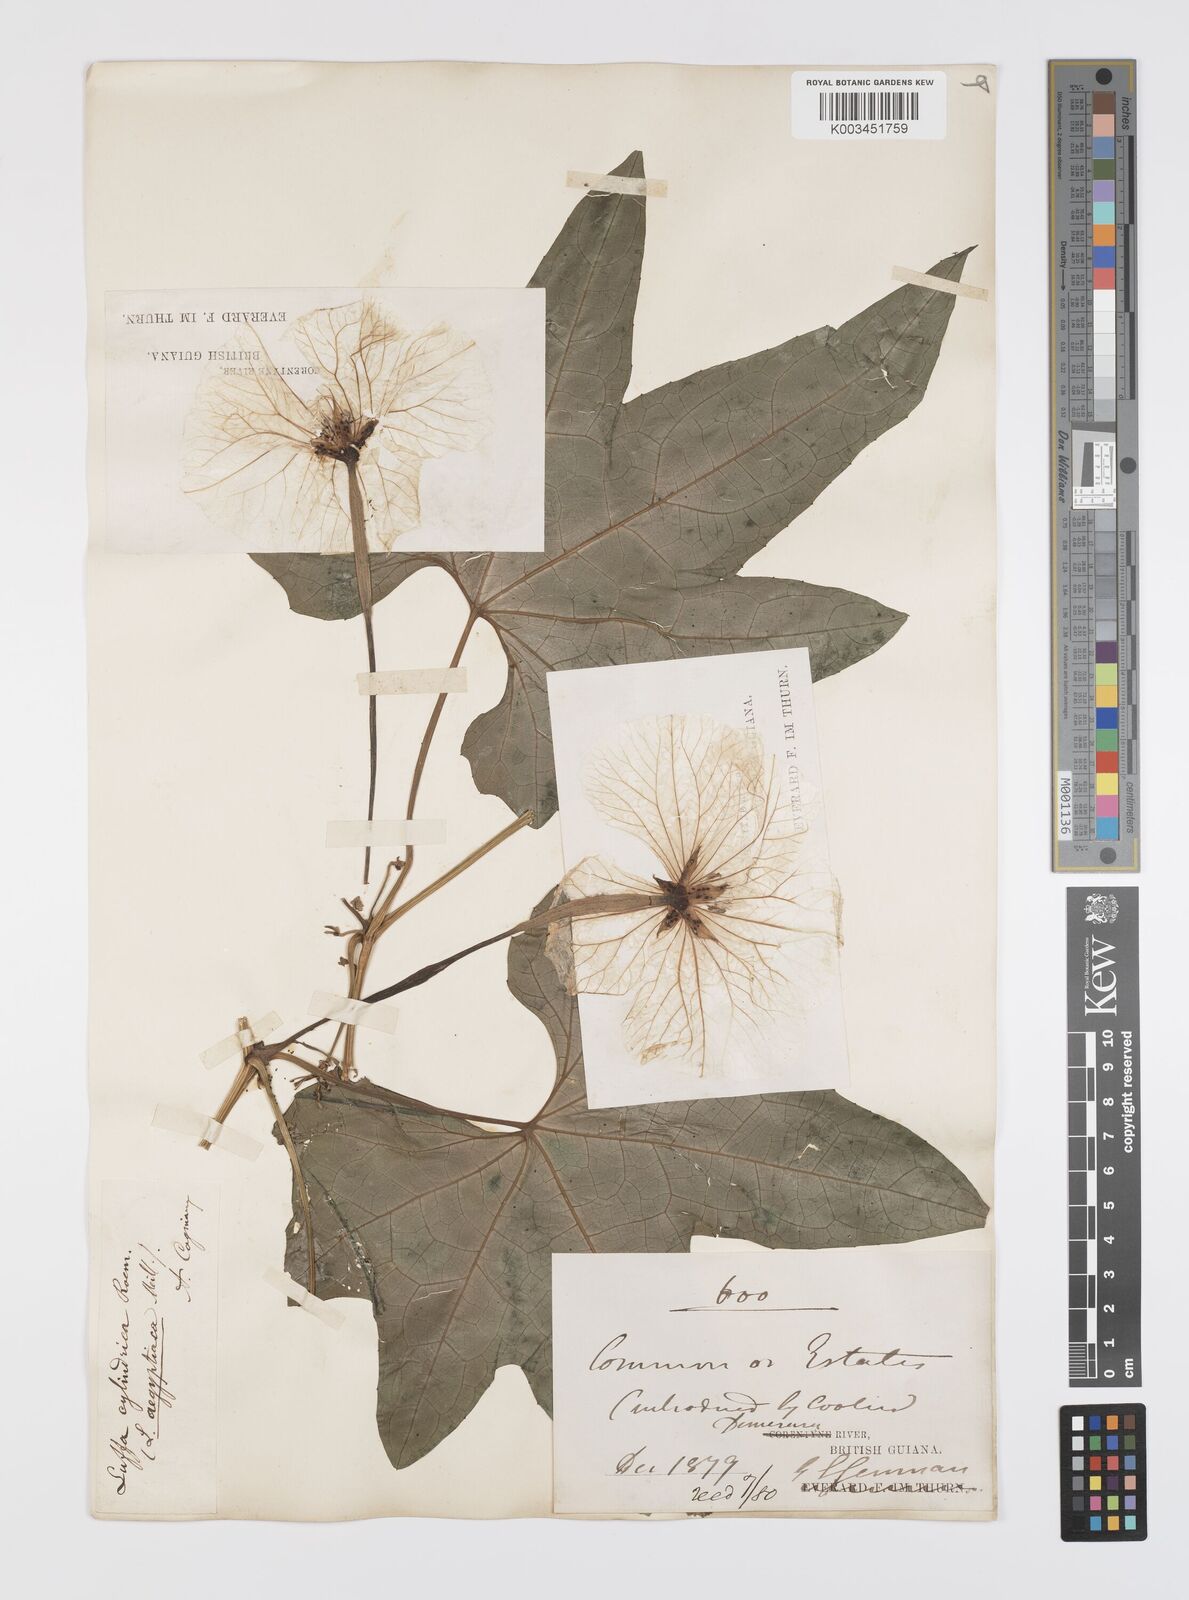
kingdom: Plantae
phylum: Tracheophyta
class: Magnoliopsida
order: Cucurbitales
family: Cucurbitaceae
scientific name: Cucurbitaceae
